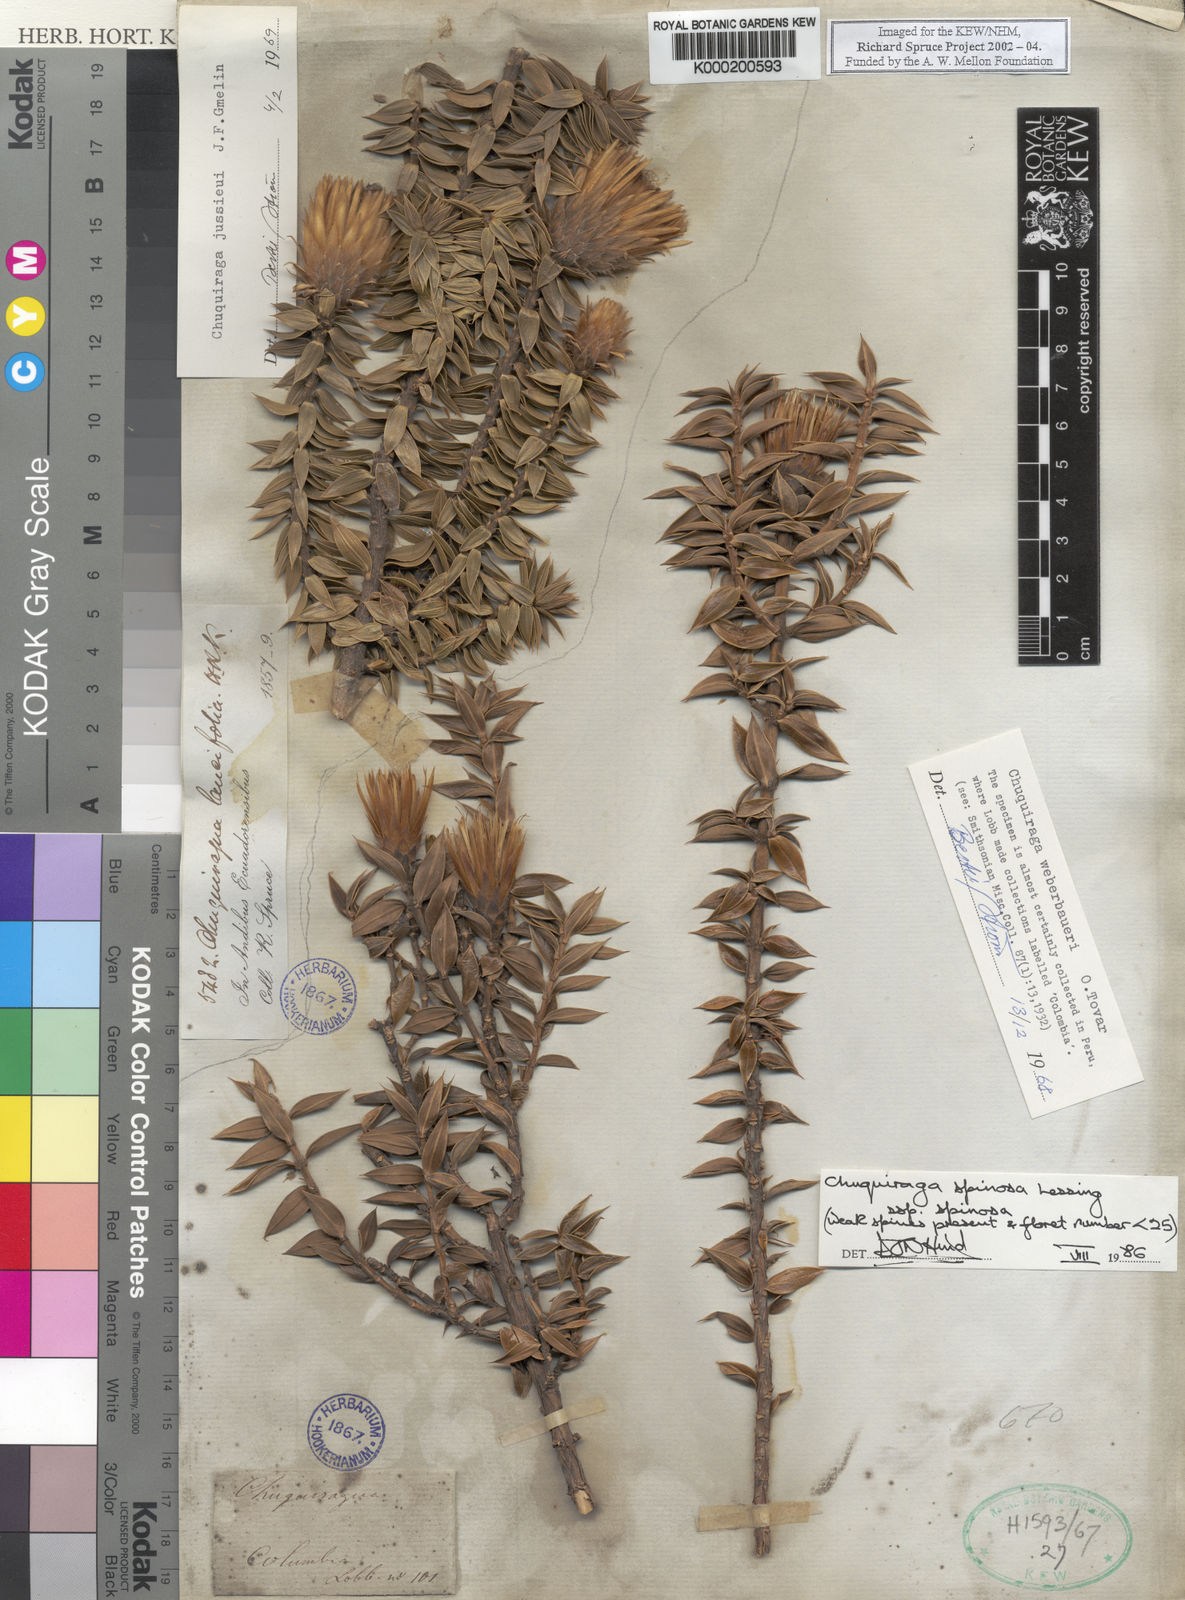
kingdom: Plantae
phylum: Tracheophyta
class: Magnoliopsida
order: Asterales
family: Asteraceae
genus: Chuquiraga
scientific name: Chuquiraga
